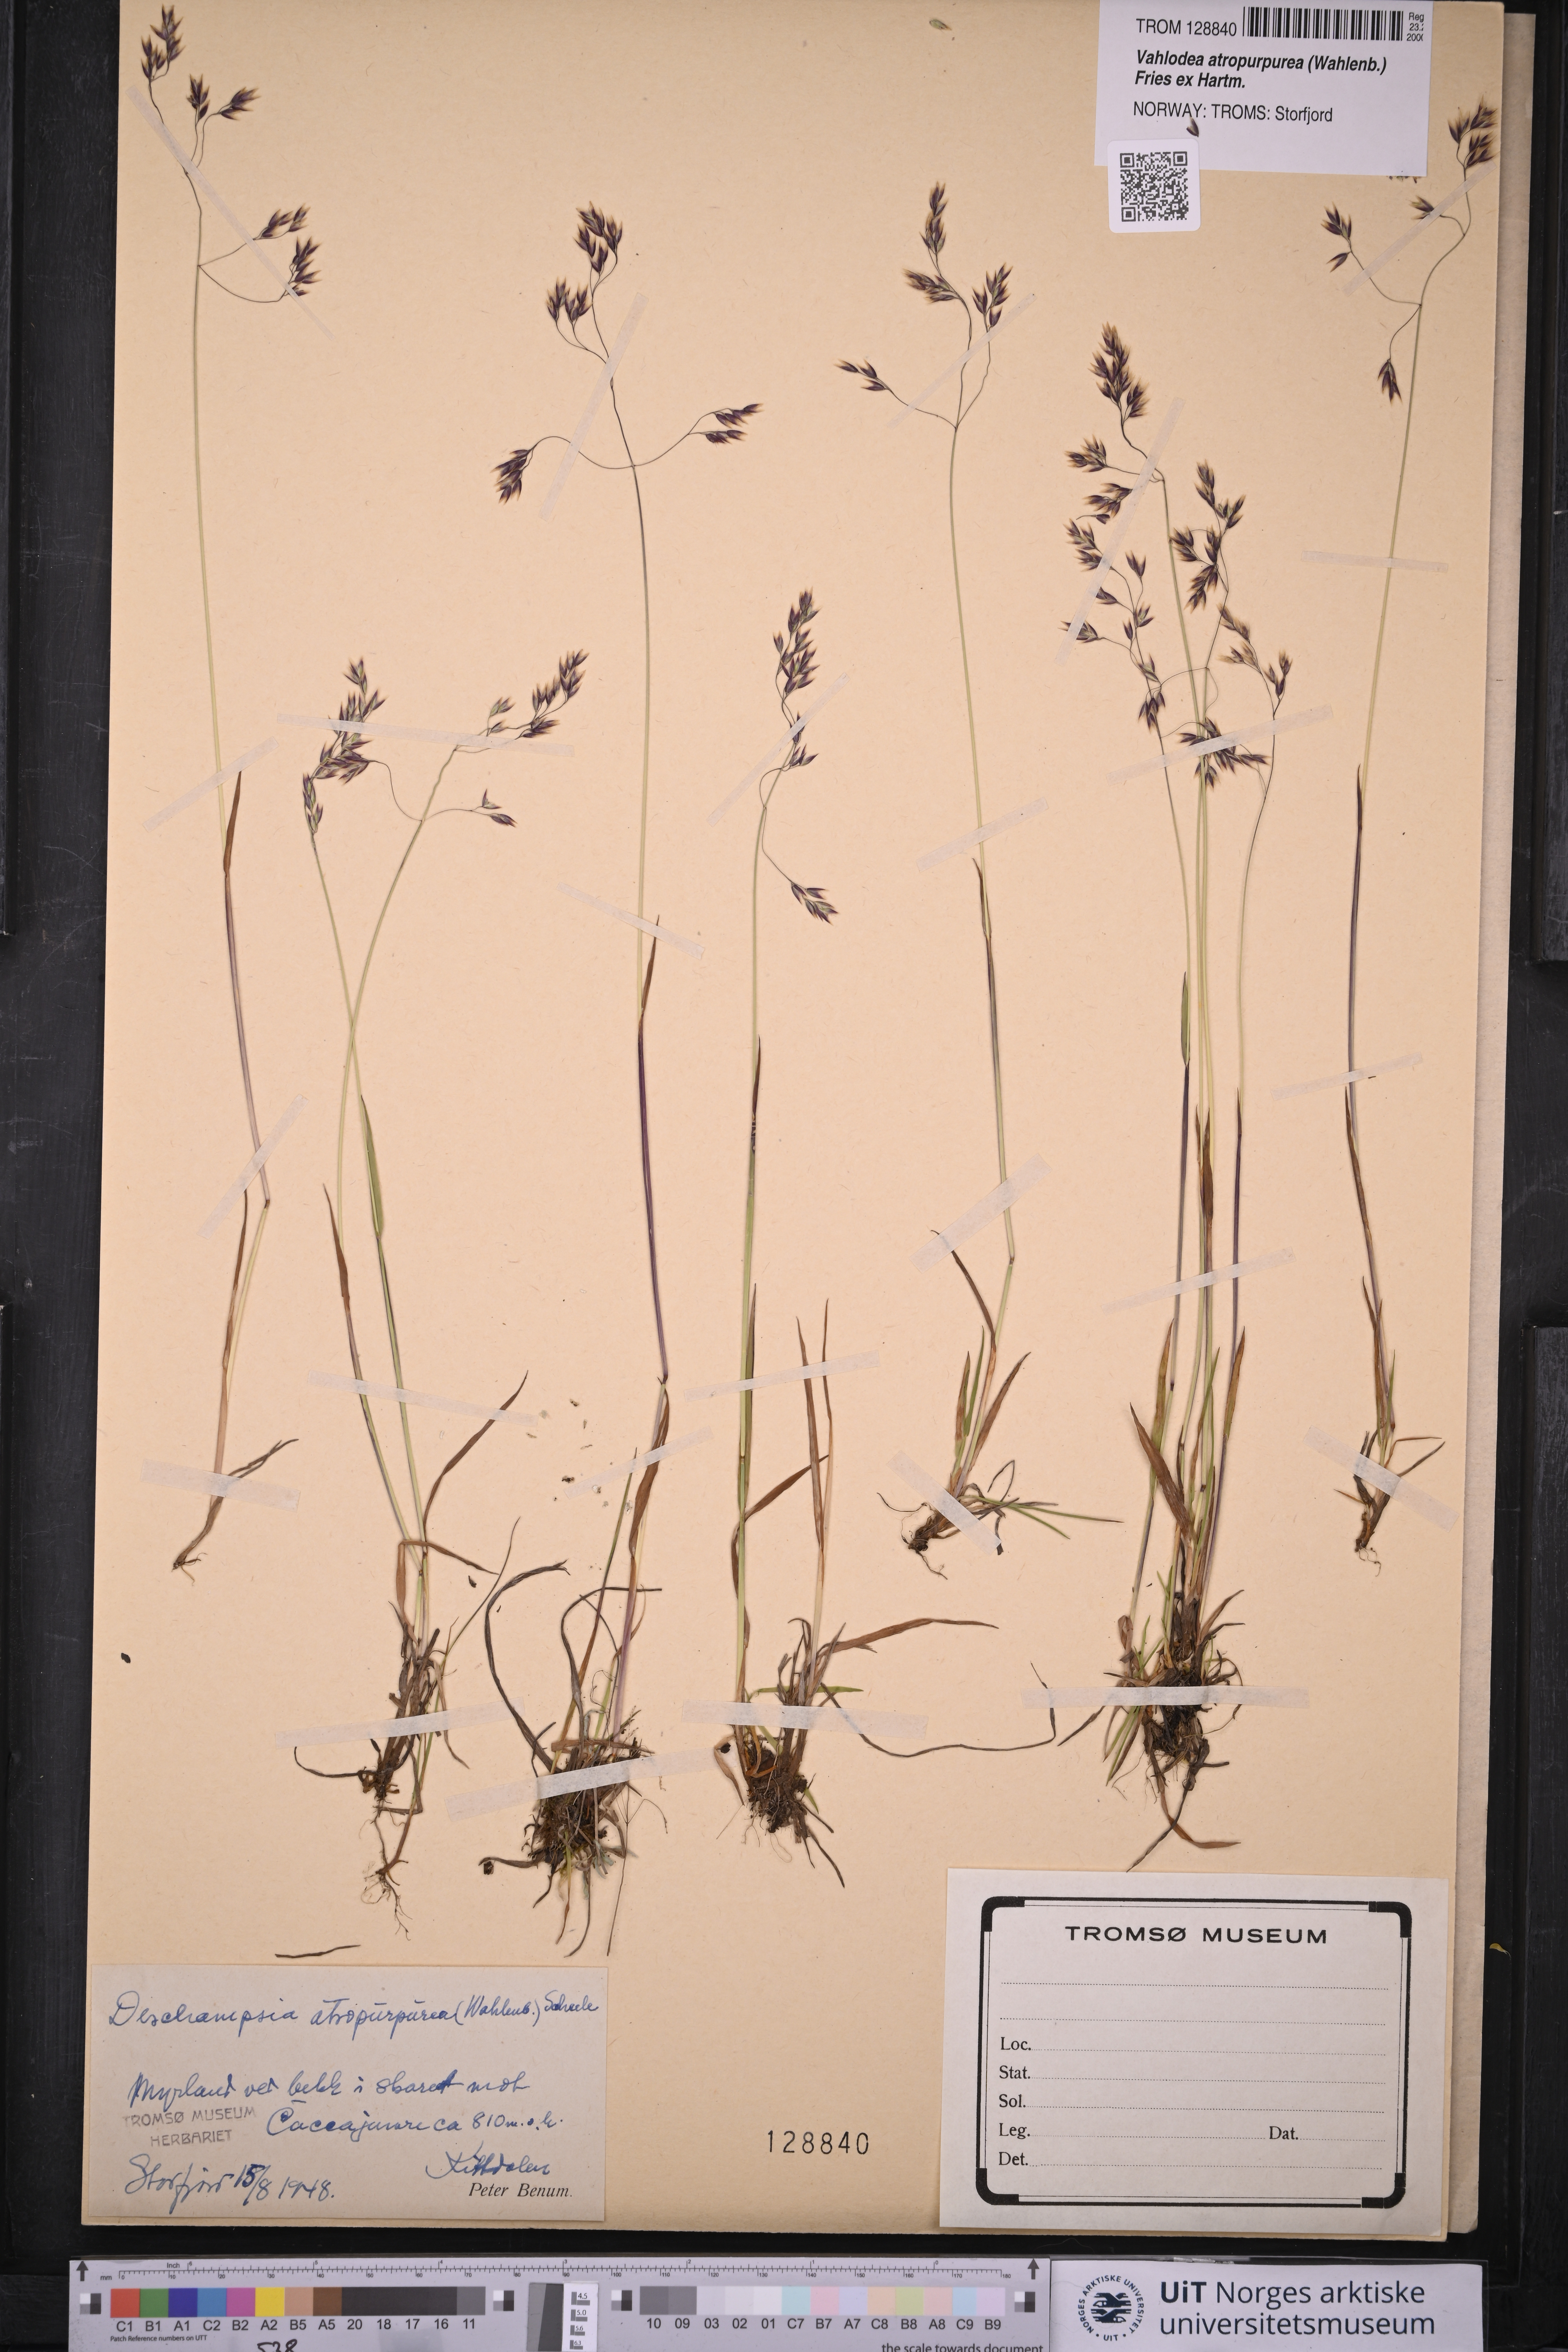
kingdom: Plantae
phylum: Tracheophyta
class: Liliopsida
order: Poales
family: Poaceae
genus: Vahlodea
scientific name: Vahlodea atropurpurea
